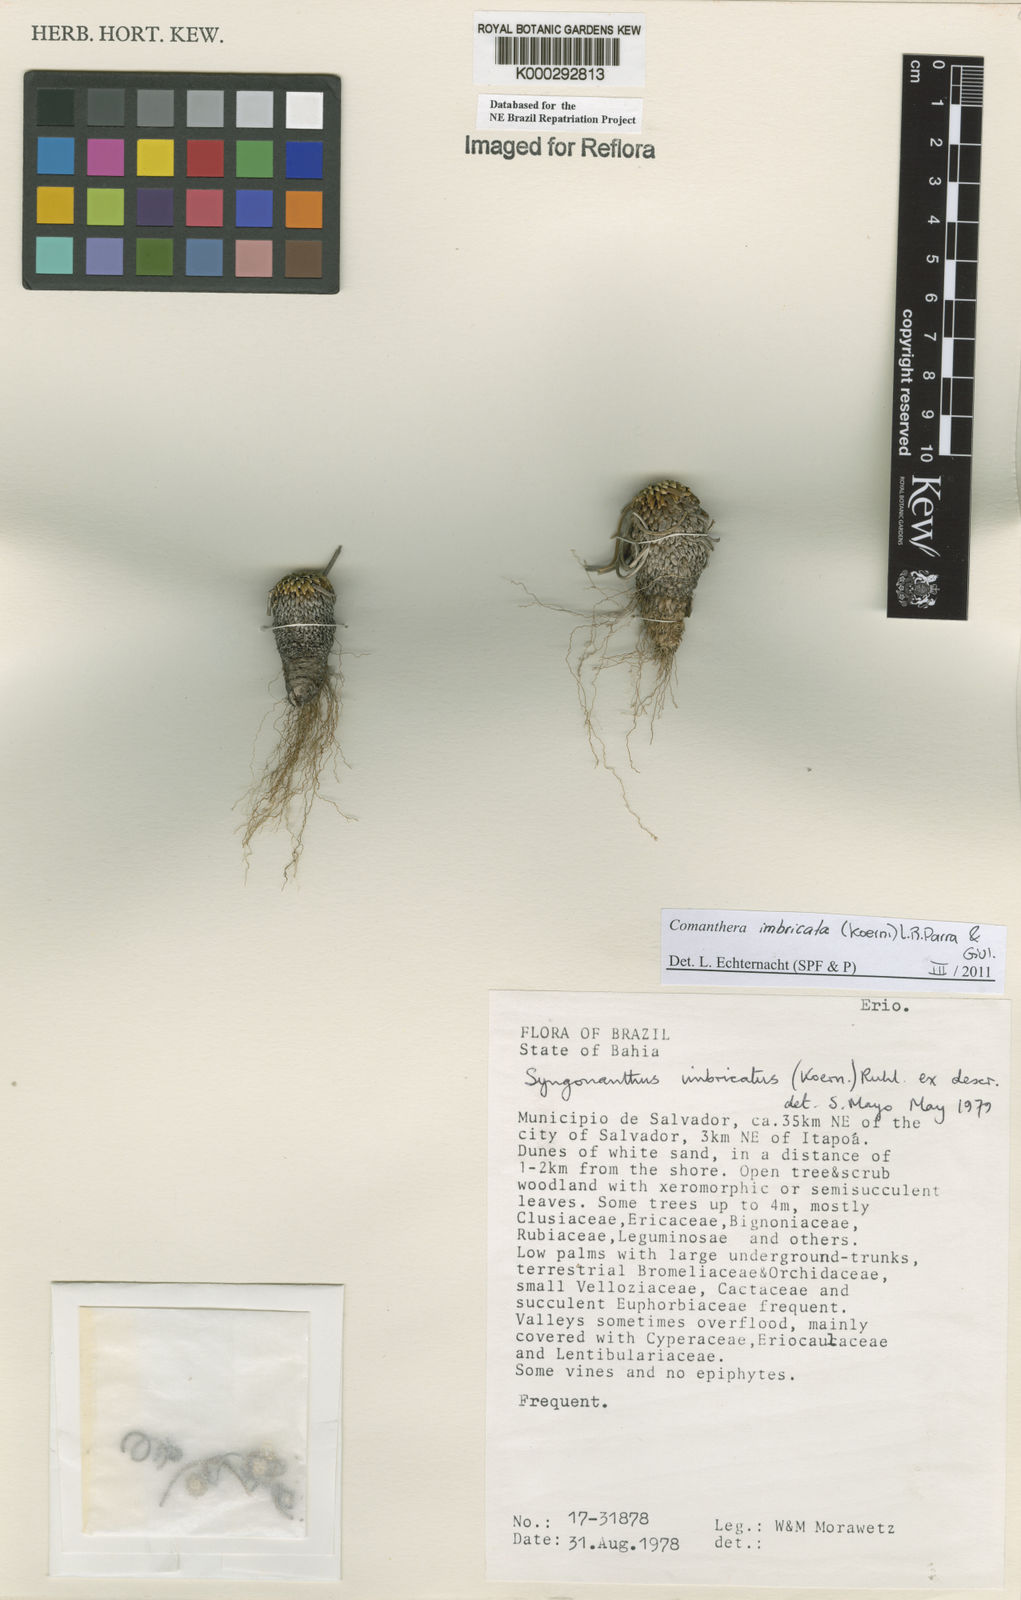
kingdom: Plantae
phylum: Tracheophyta
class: Liliopsida
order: Poales
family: Eriocaulaceae
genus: Comanthera
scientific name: Comanthera imbricata
